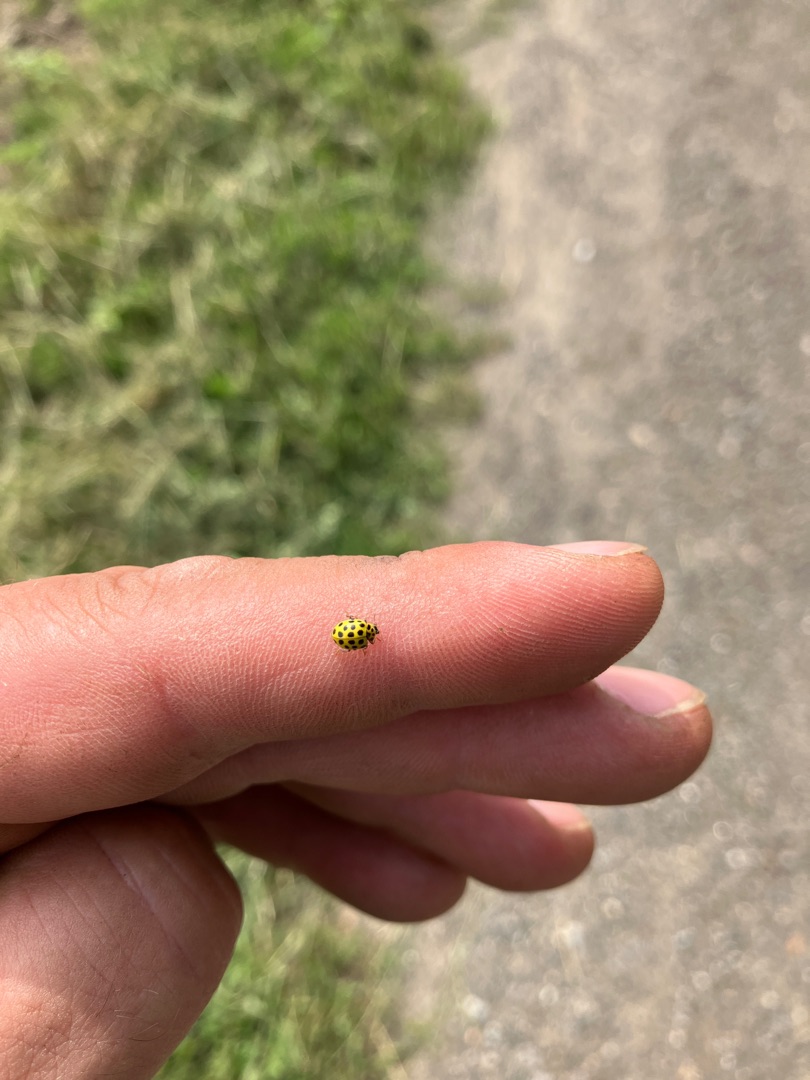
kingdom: Animalia
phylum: Arthropoda
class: Insecta
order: Coleoptera
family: Coccinellidae
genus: Psyllobora
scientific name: Psyllobora vigintiduopunctata
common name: Toogtyveplettet mariehøne
